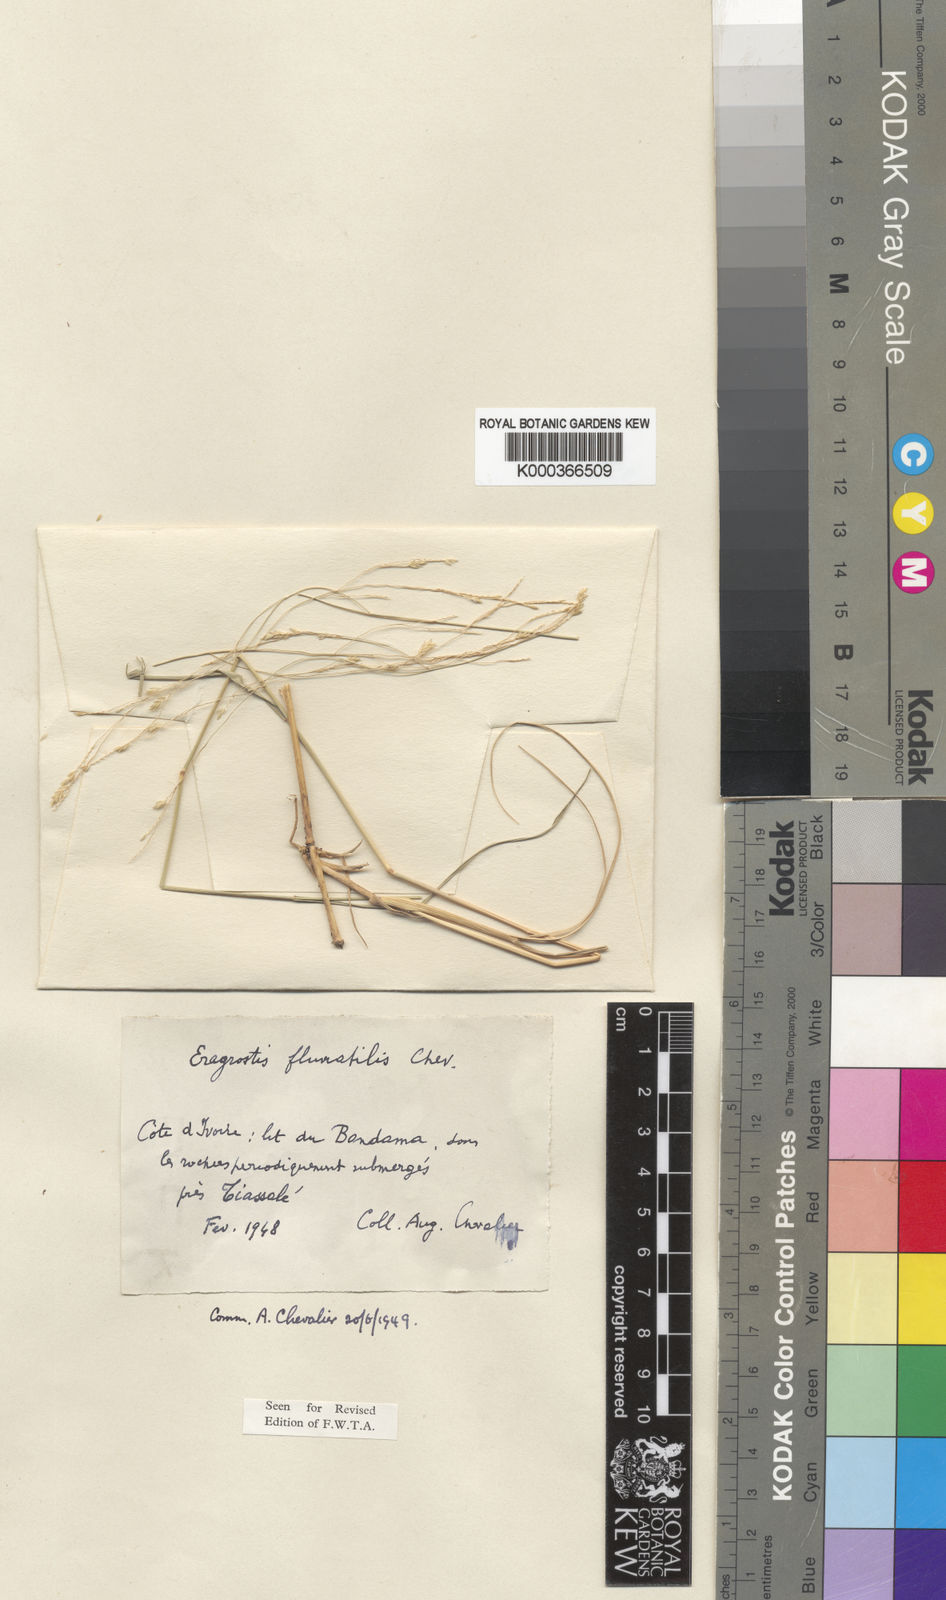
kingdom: Plantae
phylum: Tracheophyta
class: Liliopsida
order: Poales
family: Poaceae
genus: Eragrostis
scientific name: Eragrostis barteri
